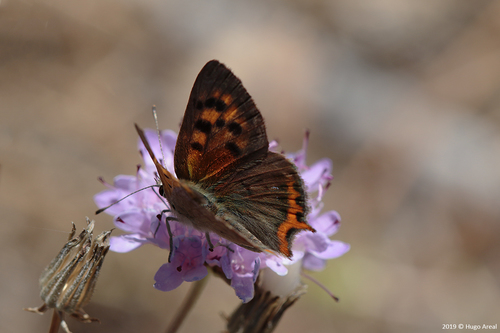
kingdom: Animalia
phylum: Arthropoda
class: Insecta
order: Lepidoptera
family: Lycaenidae
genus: Lycaena
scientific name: Lycaena phlaeas
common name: Small copper
